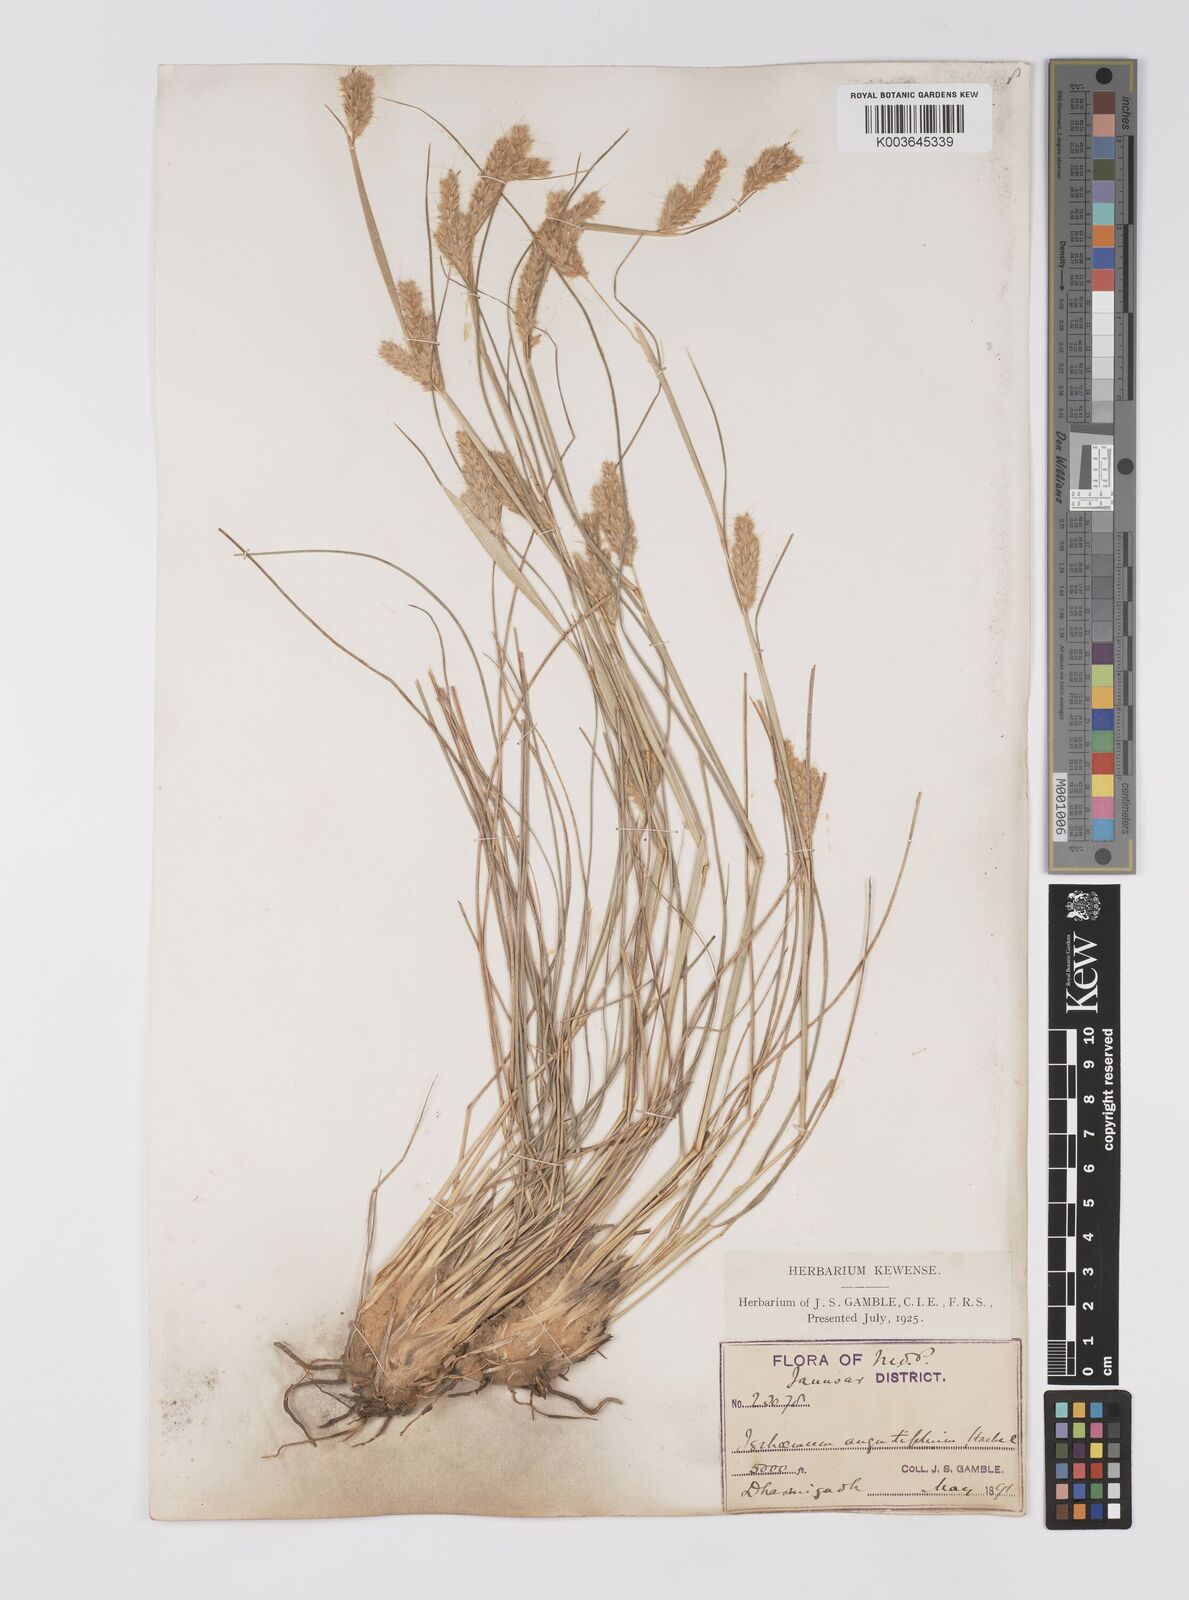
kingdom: Plantae
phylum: Tracheophyta
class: Liliopsida
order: Poales
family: Poaceae
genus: Eulaliopsis
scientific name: Eulaliopsis binata
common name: Baib grass
